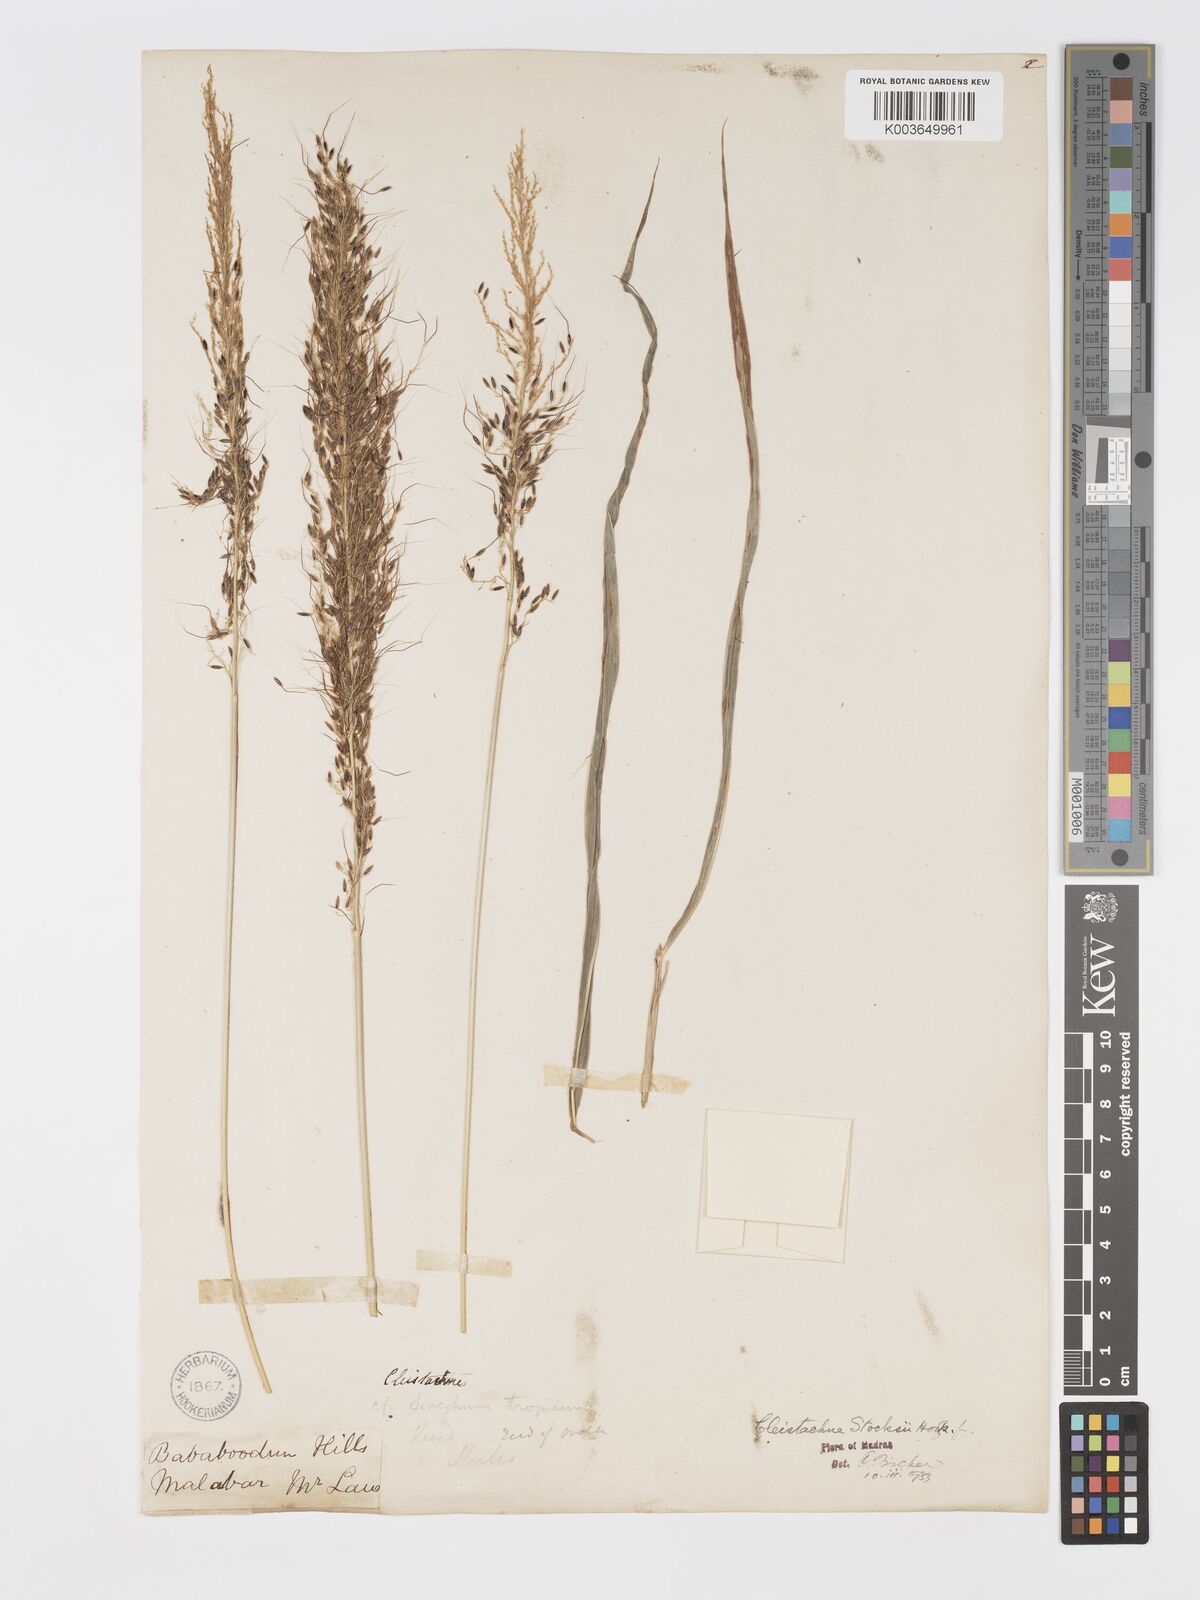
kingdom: Plantae
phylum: Tracheophyta
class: Liliopsida
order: Poales
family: Poaceae
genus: Cleistachne
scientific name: Cleistachne sorghoides
